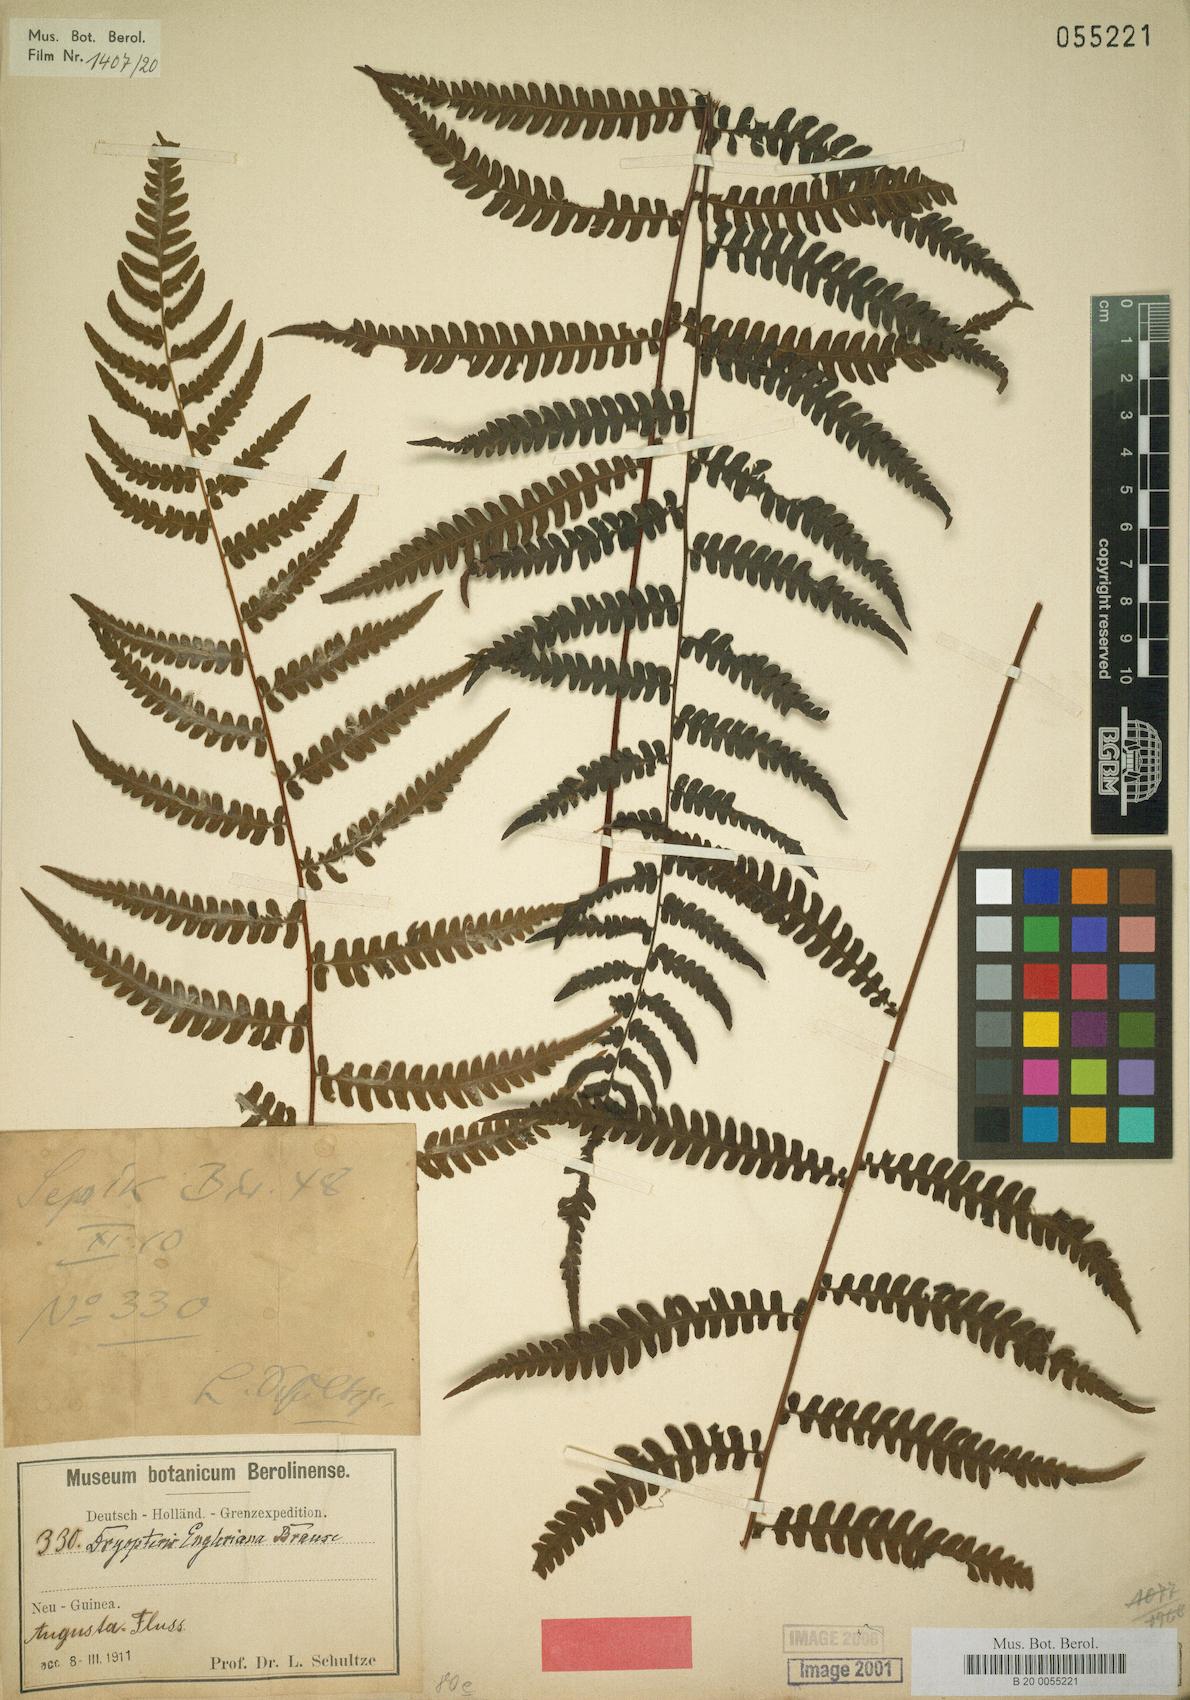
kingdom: Plantae
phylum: Tracheophyta
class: Polypodiopsida
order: Polypodiales
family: Thelypteridaceae
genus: Coryphopteris
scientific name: Coryphopteris engleriana
